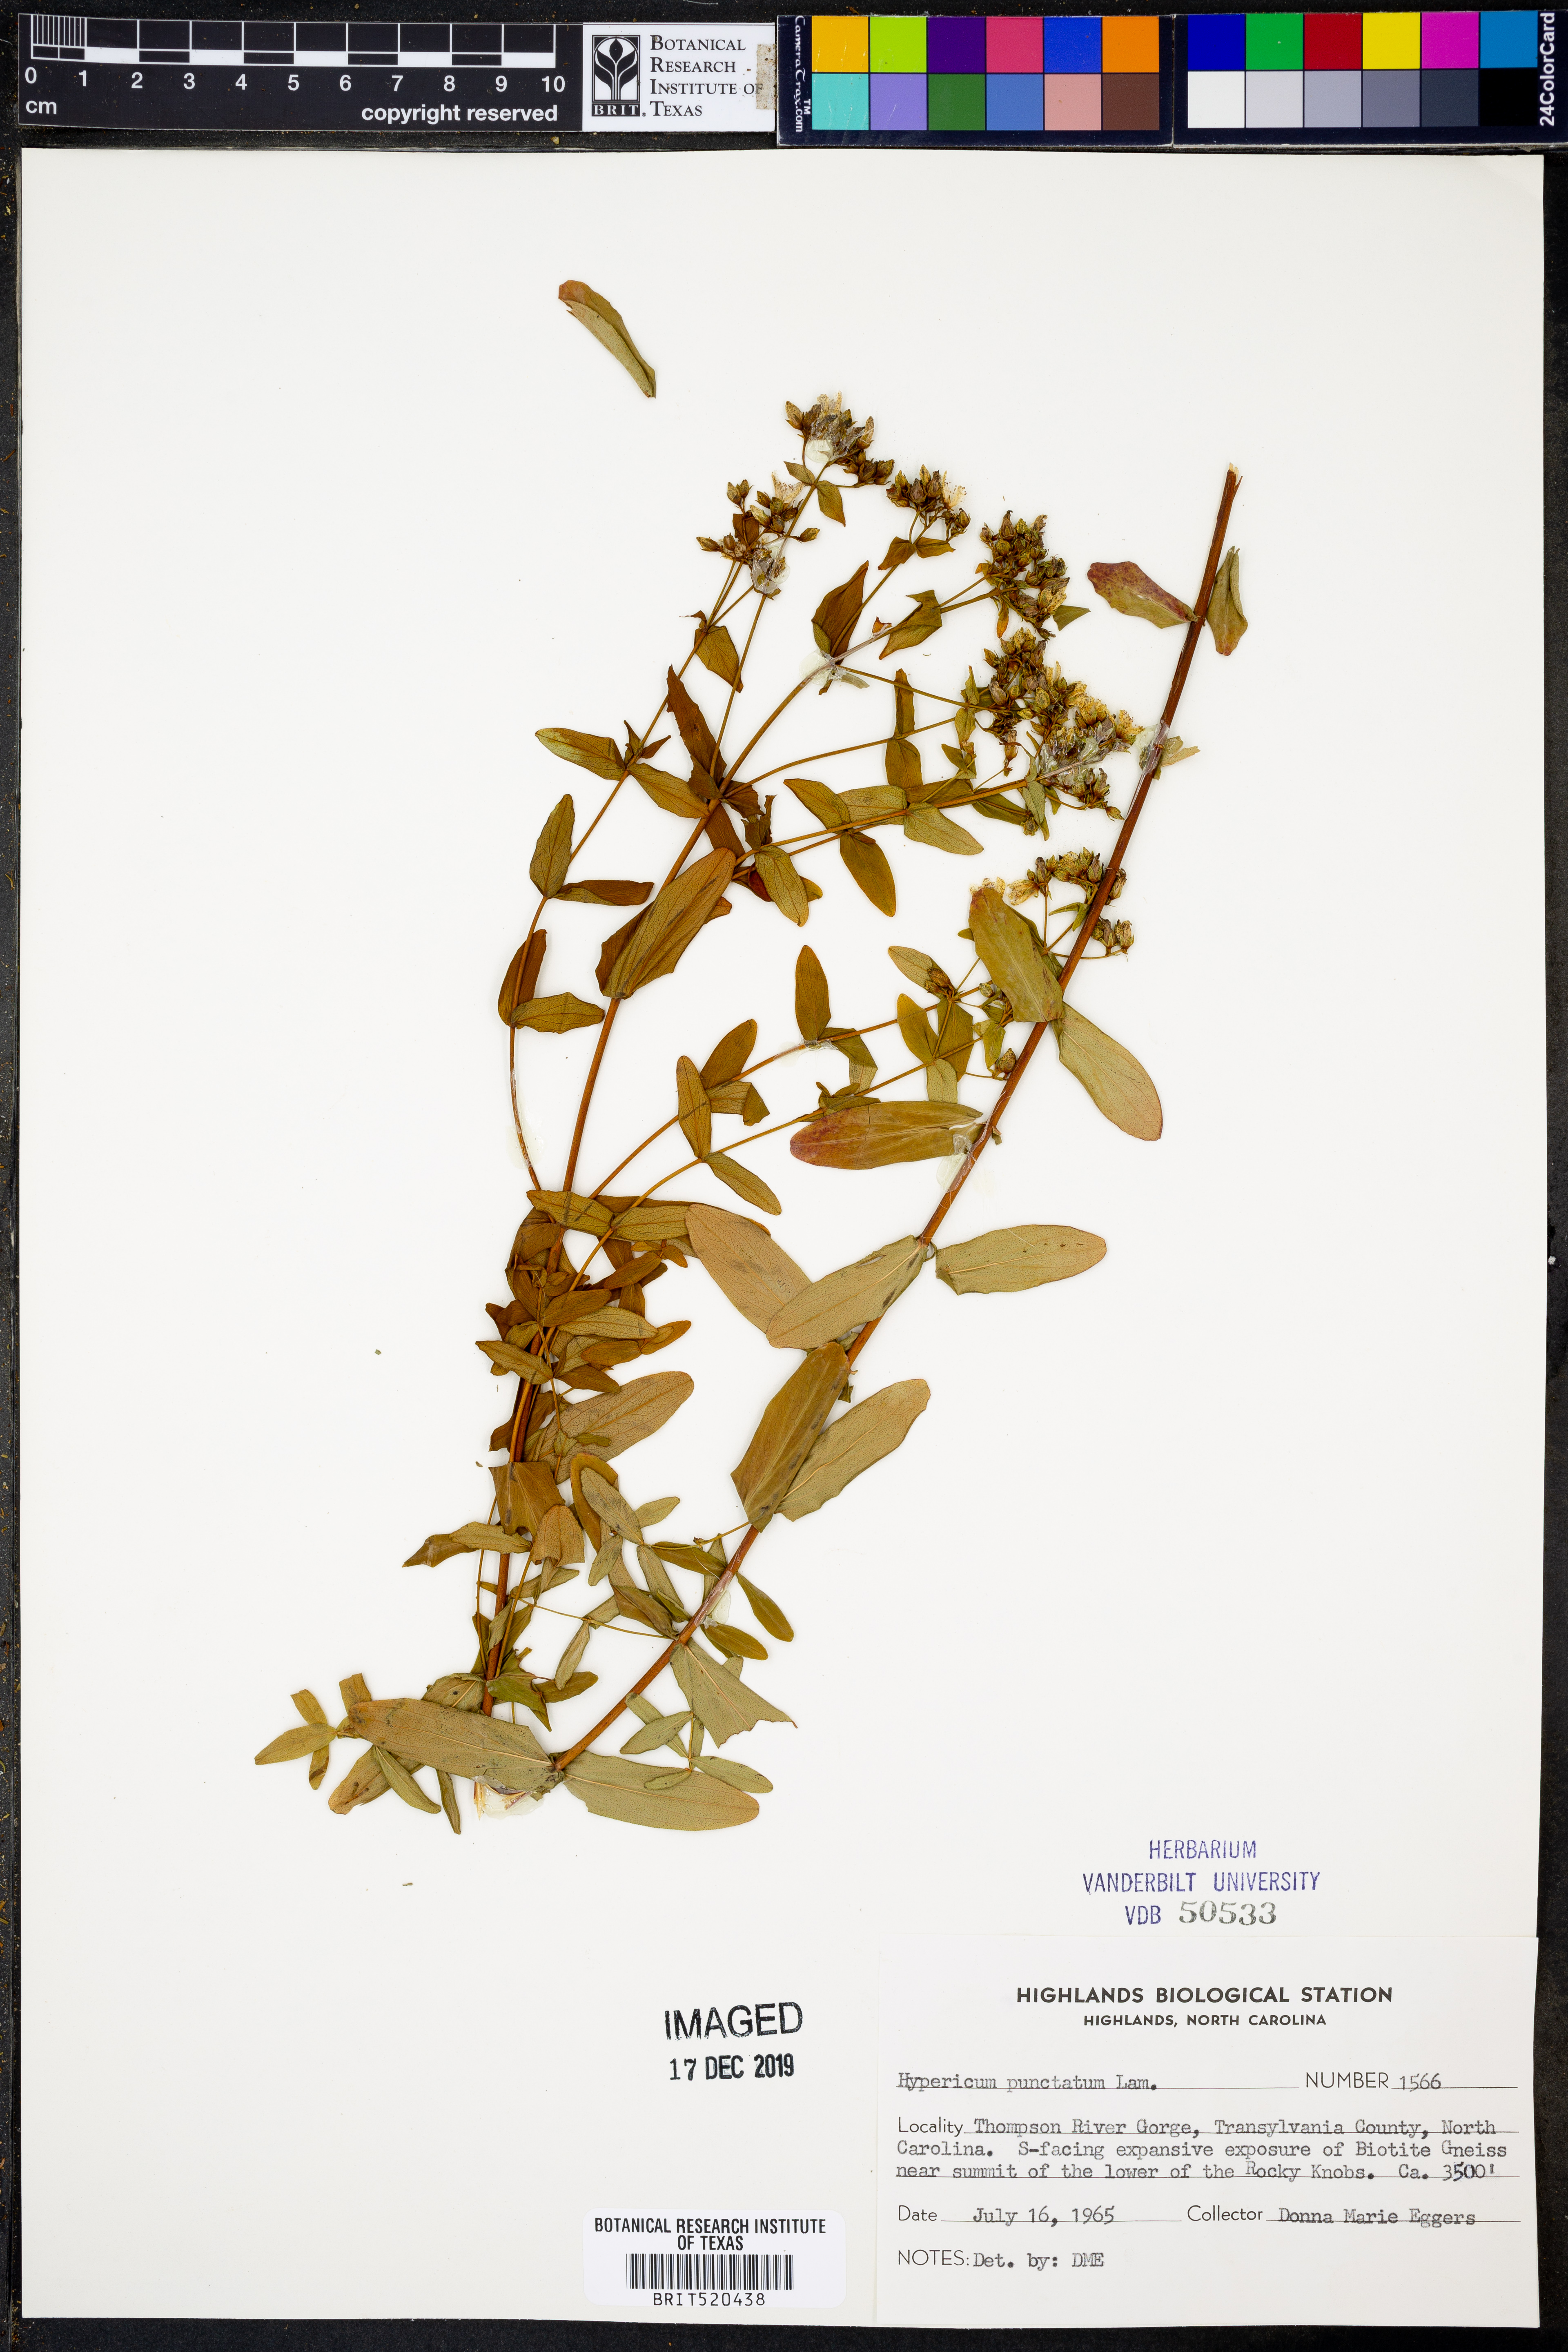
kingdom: Plantae
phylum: Tracheophyta
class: Magnoliopsida
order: Malpighiales
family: Hypericaceae
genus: Hypericum
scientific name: Hypericum punctatum
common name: Spotted st. john's-wort
